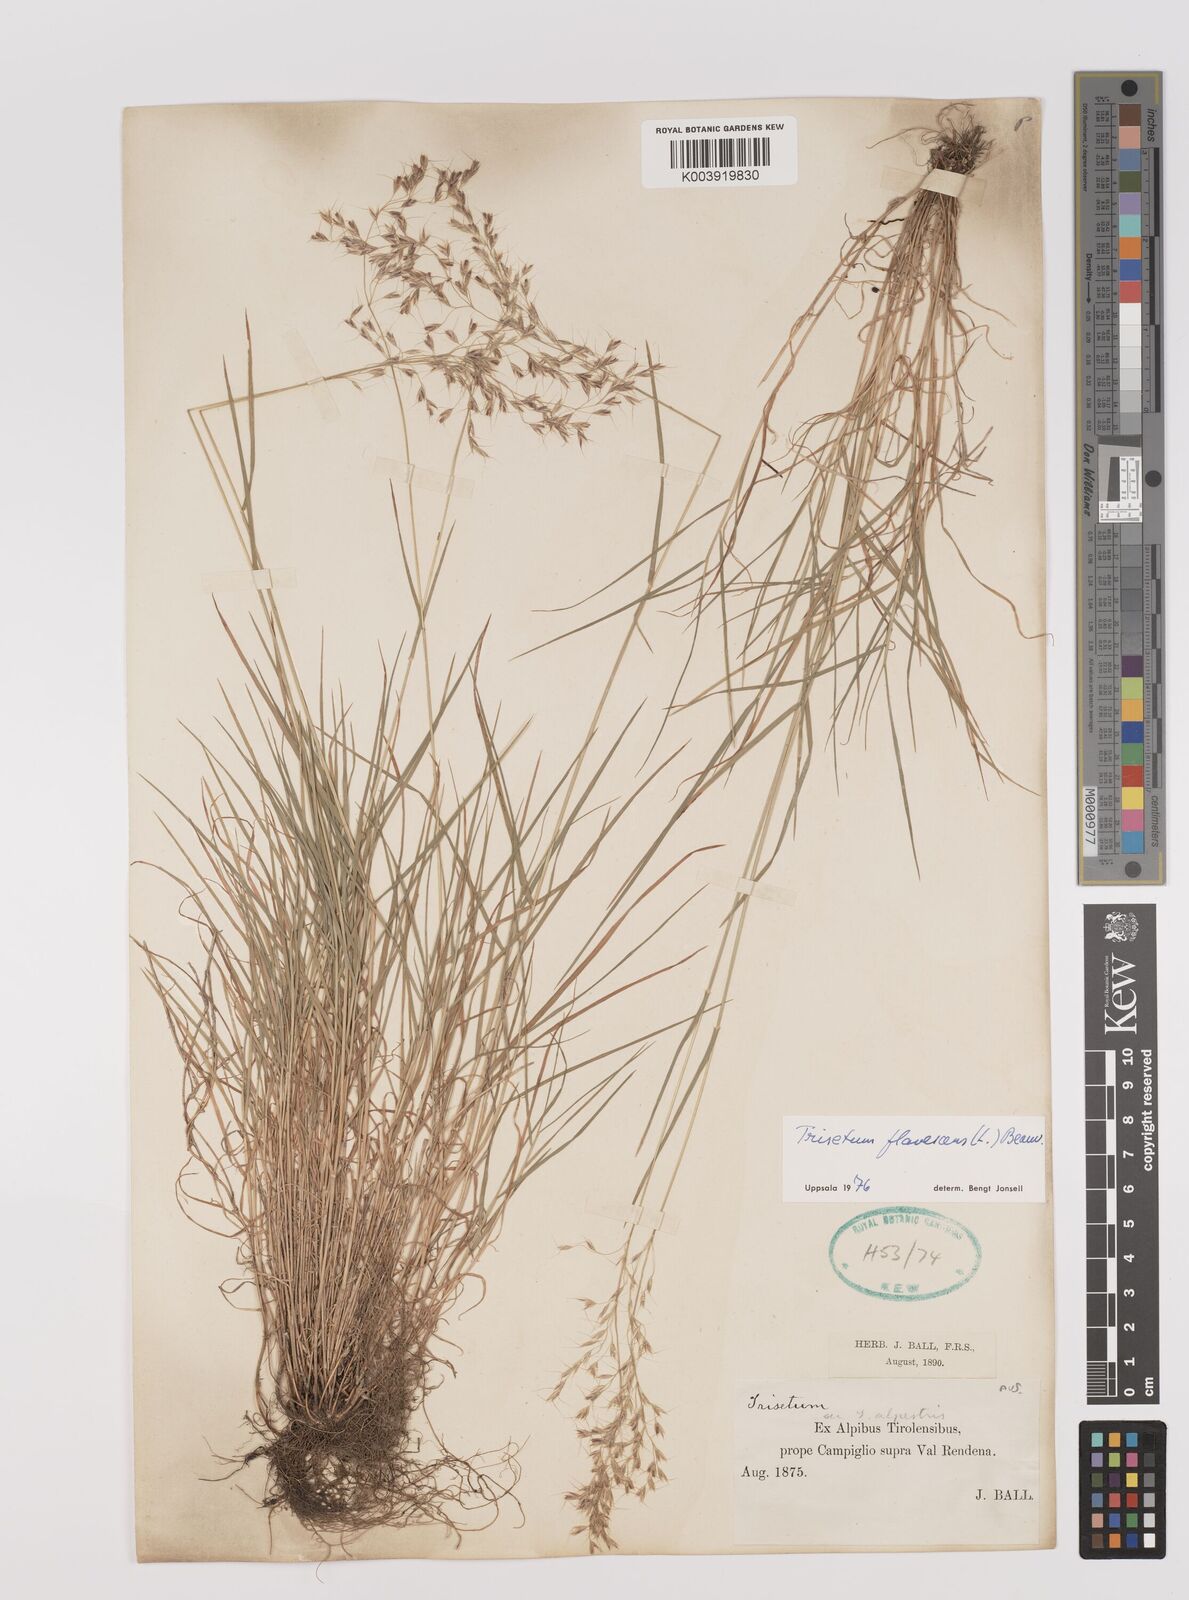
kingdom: Plantae
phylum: Tracheophyta
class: Liliopsida
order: Poales
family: Poaceae
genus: Trisetum
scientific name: Trisetum flavescens
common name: Yellow oat-grass
